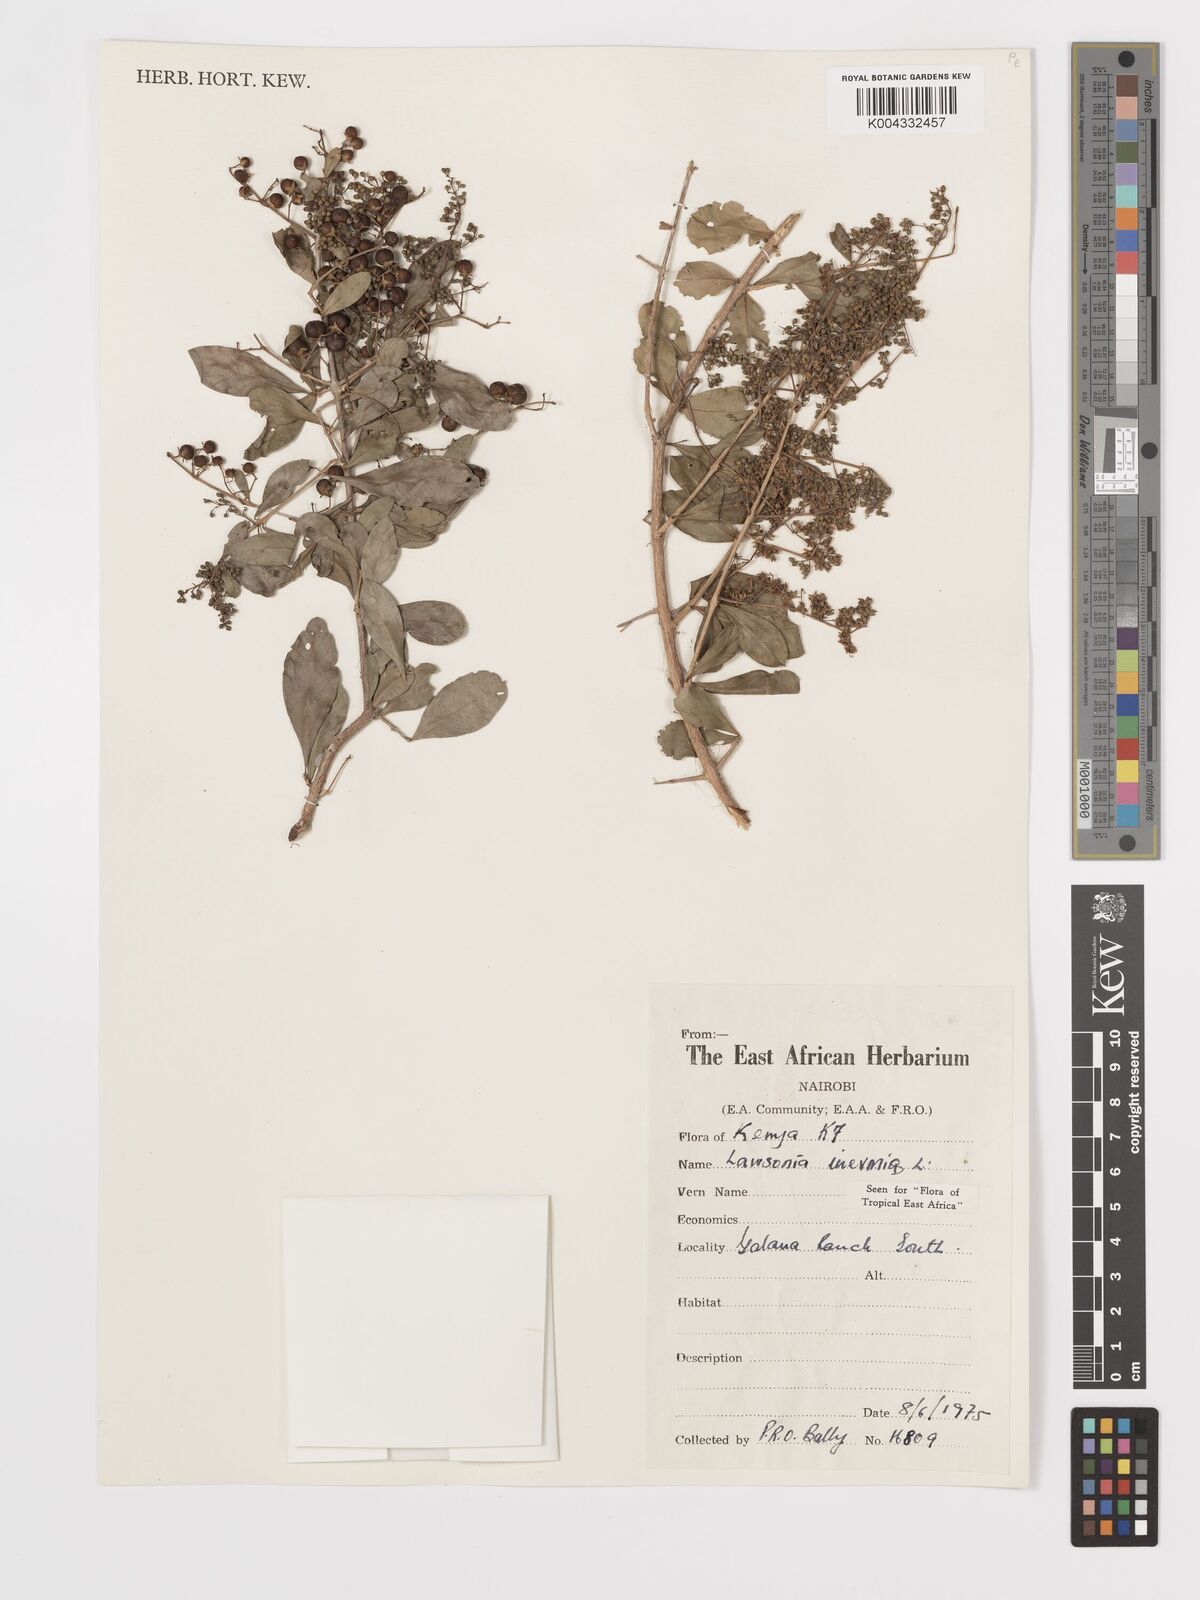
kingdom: Plantae
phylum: Tracheophyta
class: Magnoliopsida
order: Myrtales
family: Lythraceae
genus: Lawsonia
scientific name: Lawsonia inermis
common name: Henna
